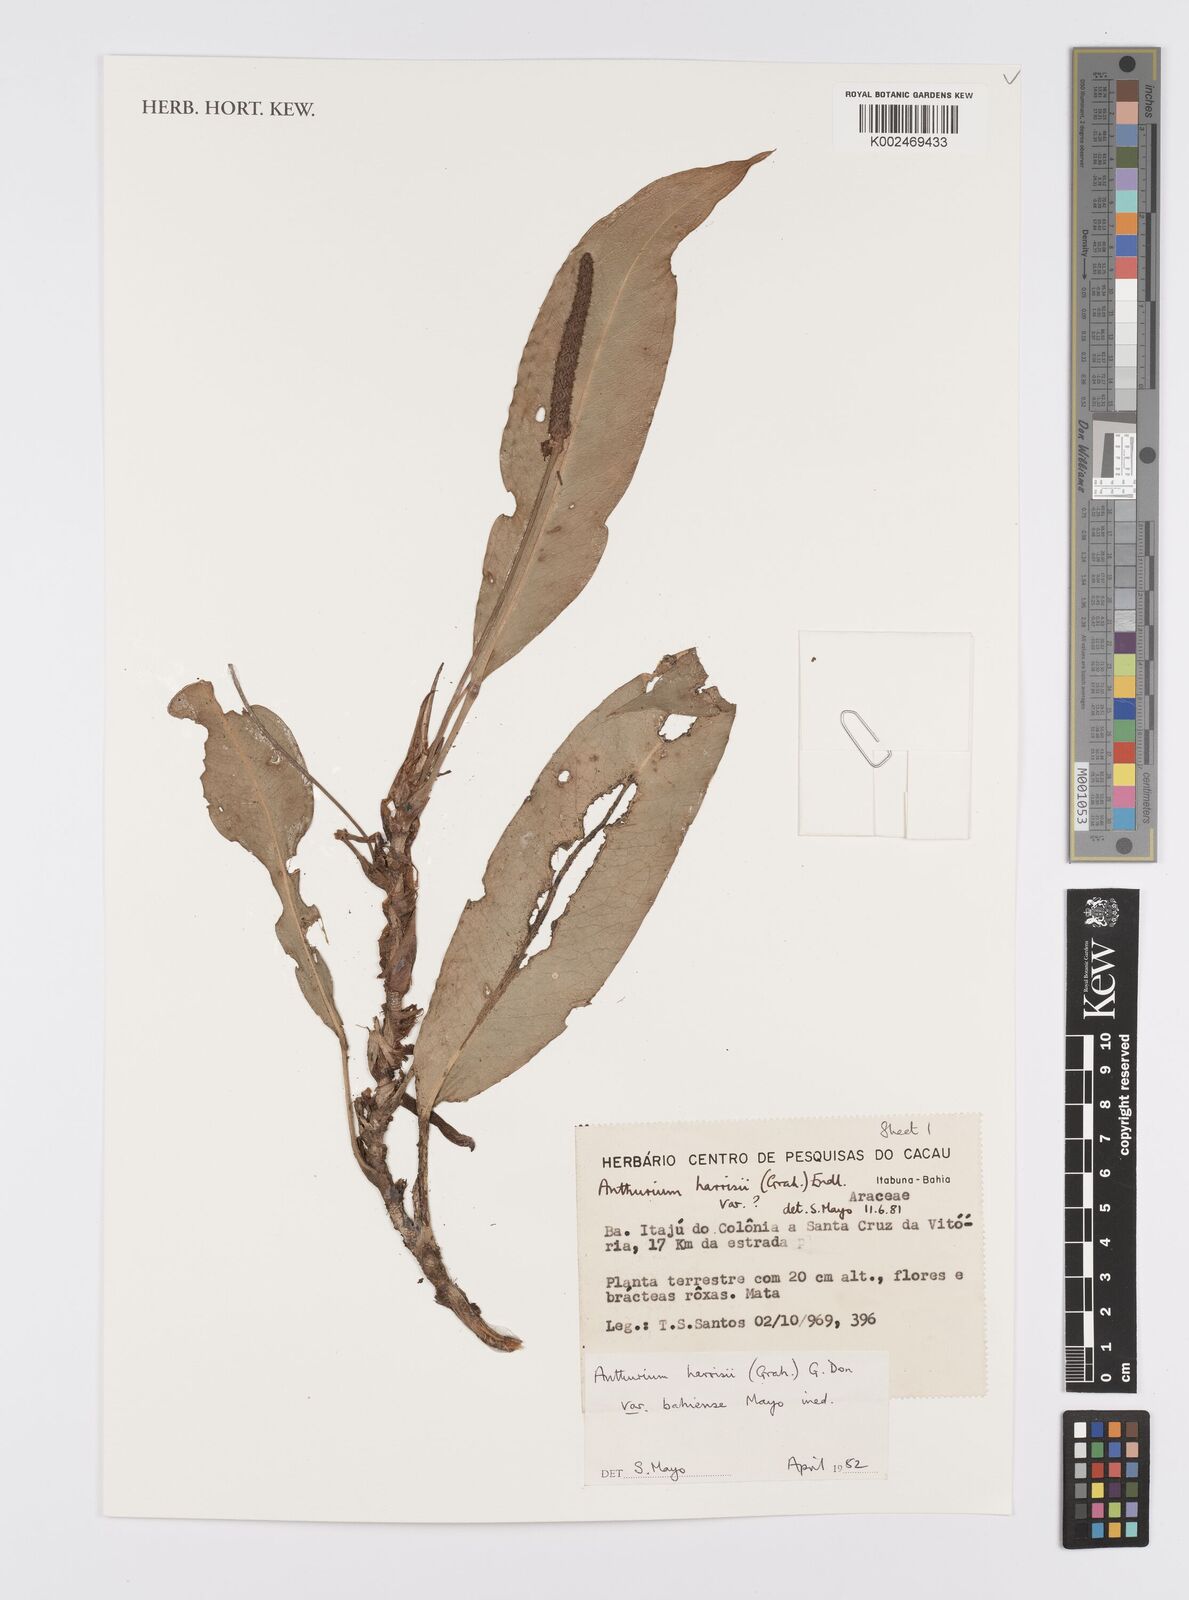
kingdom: Plantae
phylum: Tracheophyta
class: Liliopsida
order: Alismatales
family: Araceae
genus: Anthurium
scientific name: Anthurium harrisii
